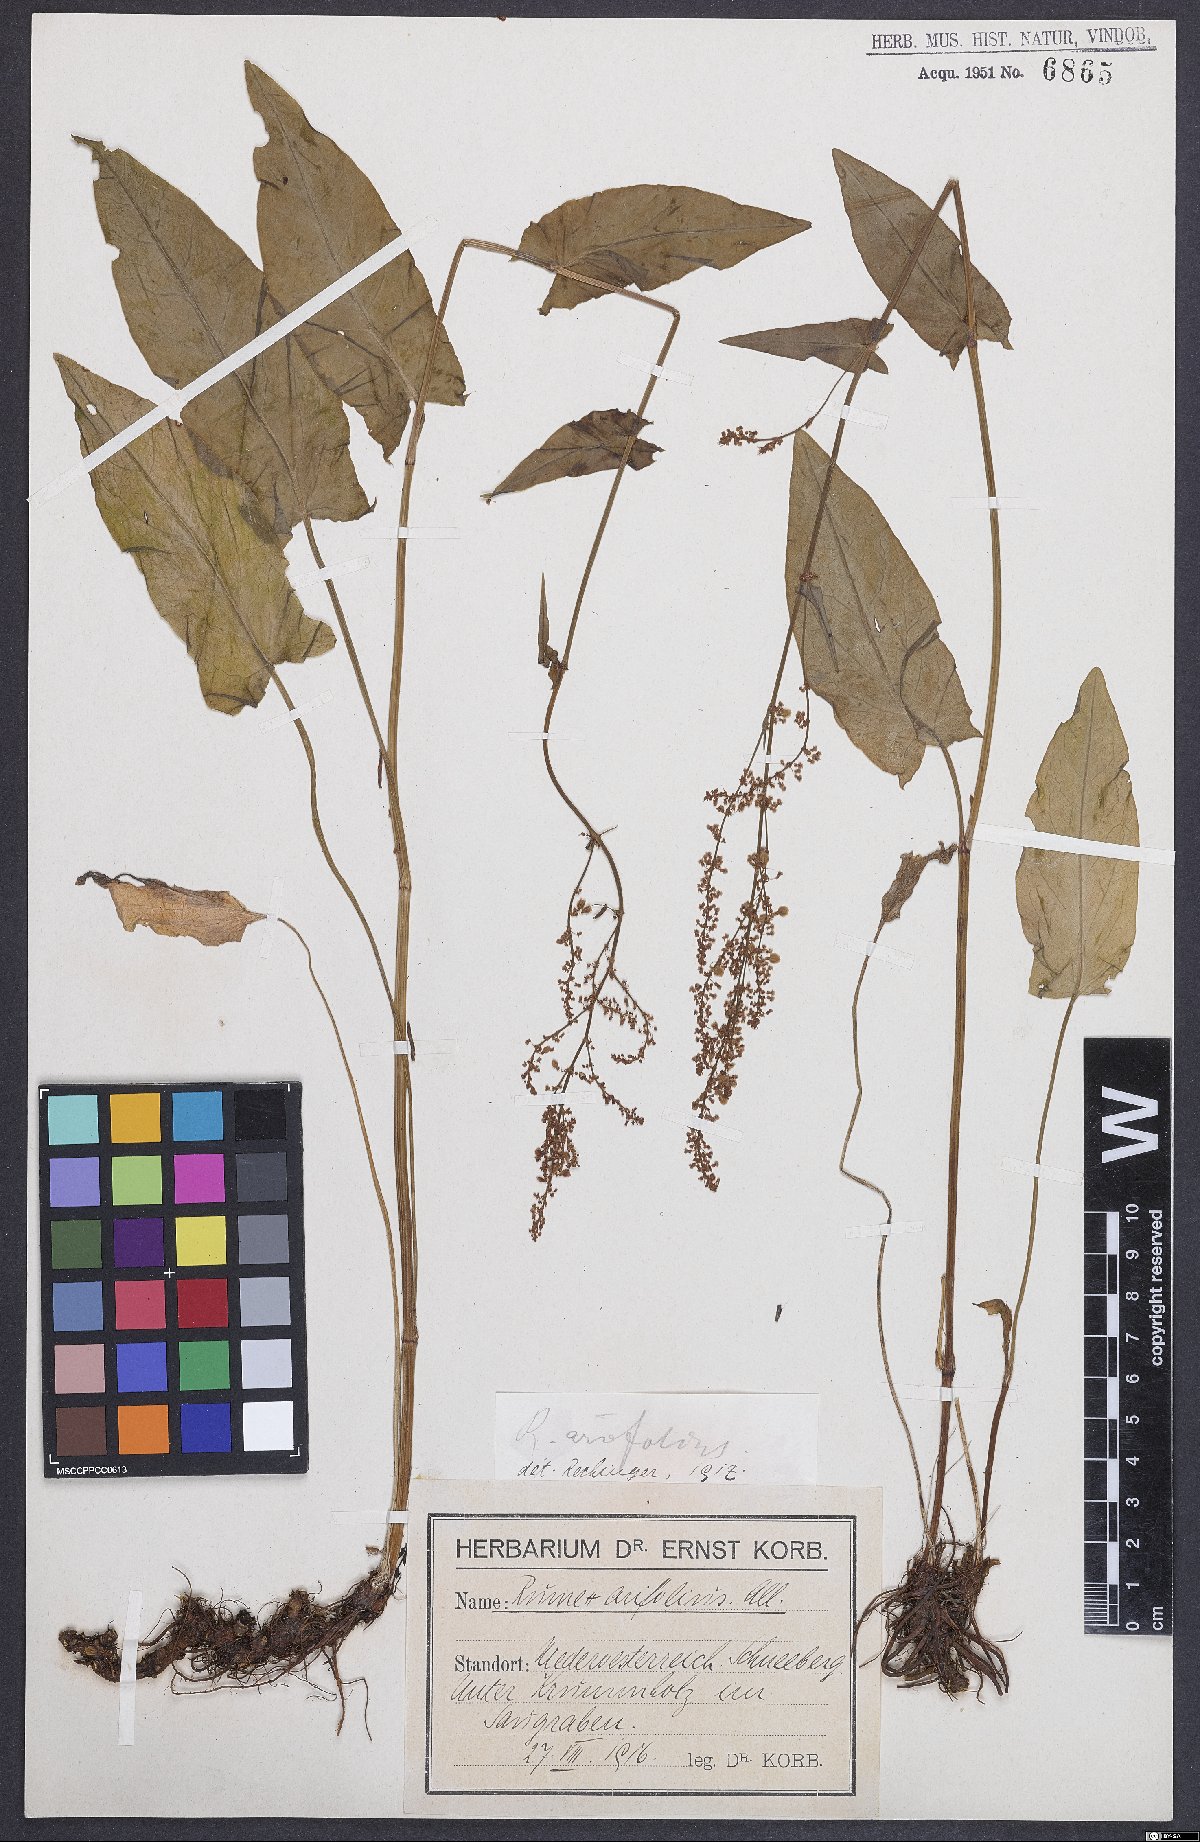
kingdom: Plantae
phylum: Tracheophyta
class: Magnoliopsida
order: Caryophyllales
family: Polygonaceae
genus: Rumex
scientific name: Rumex arifolius
